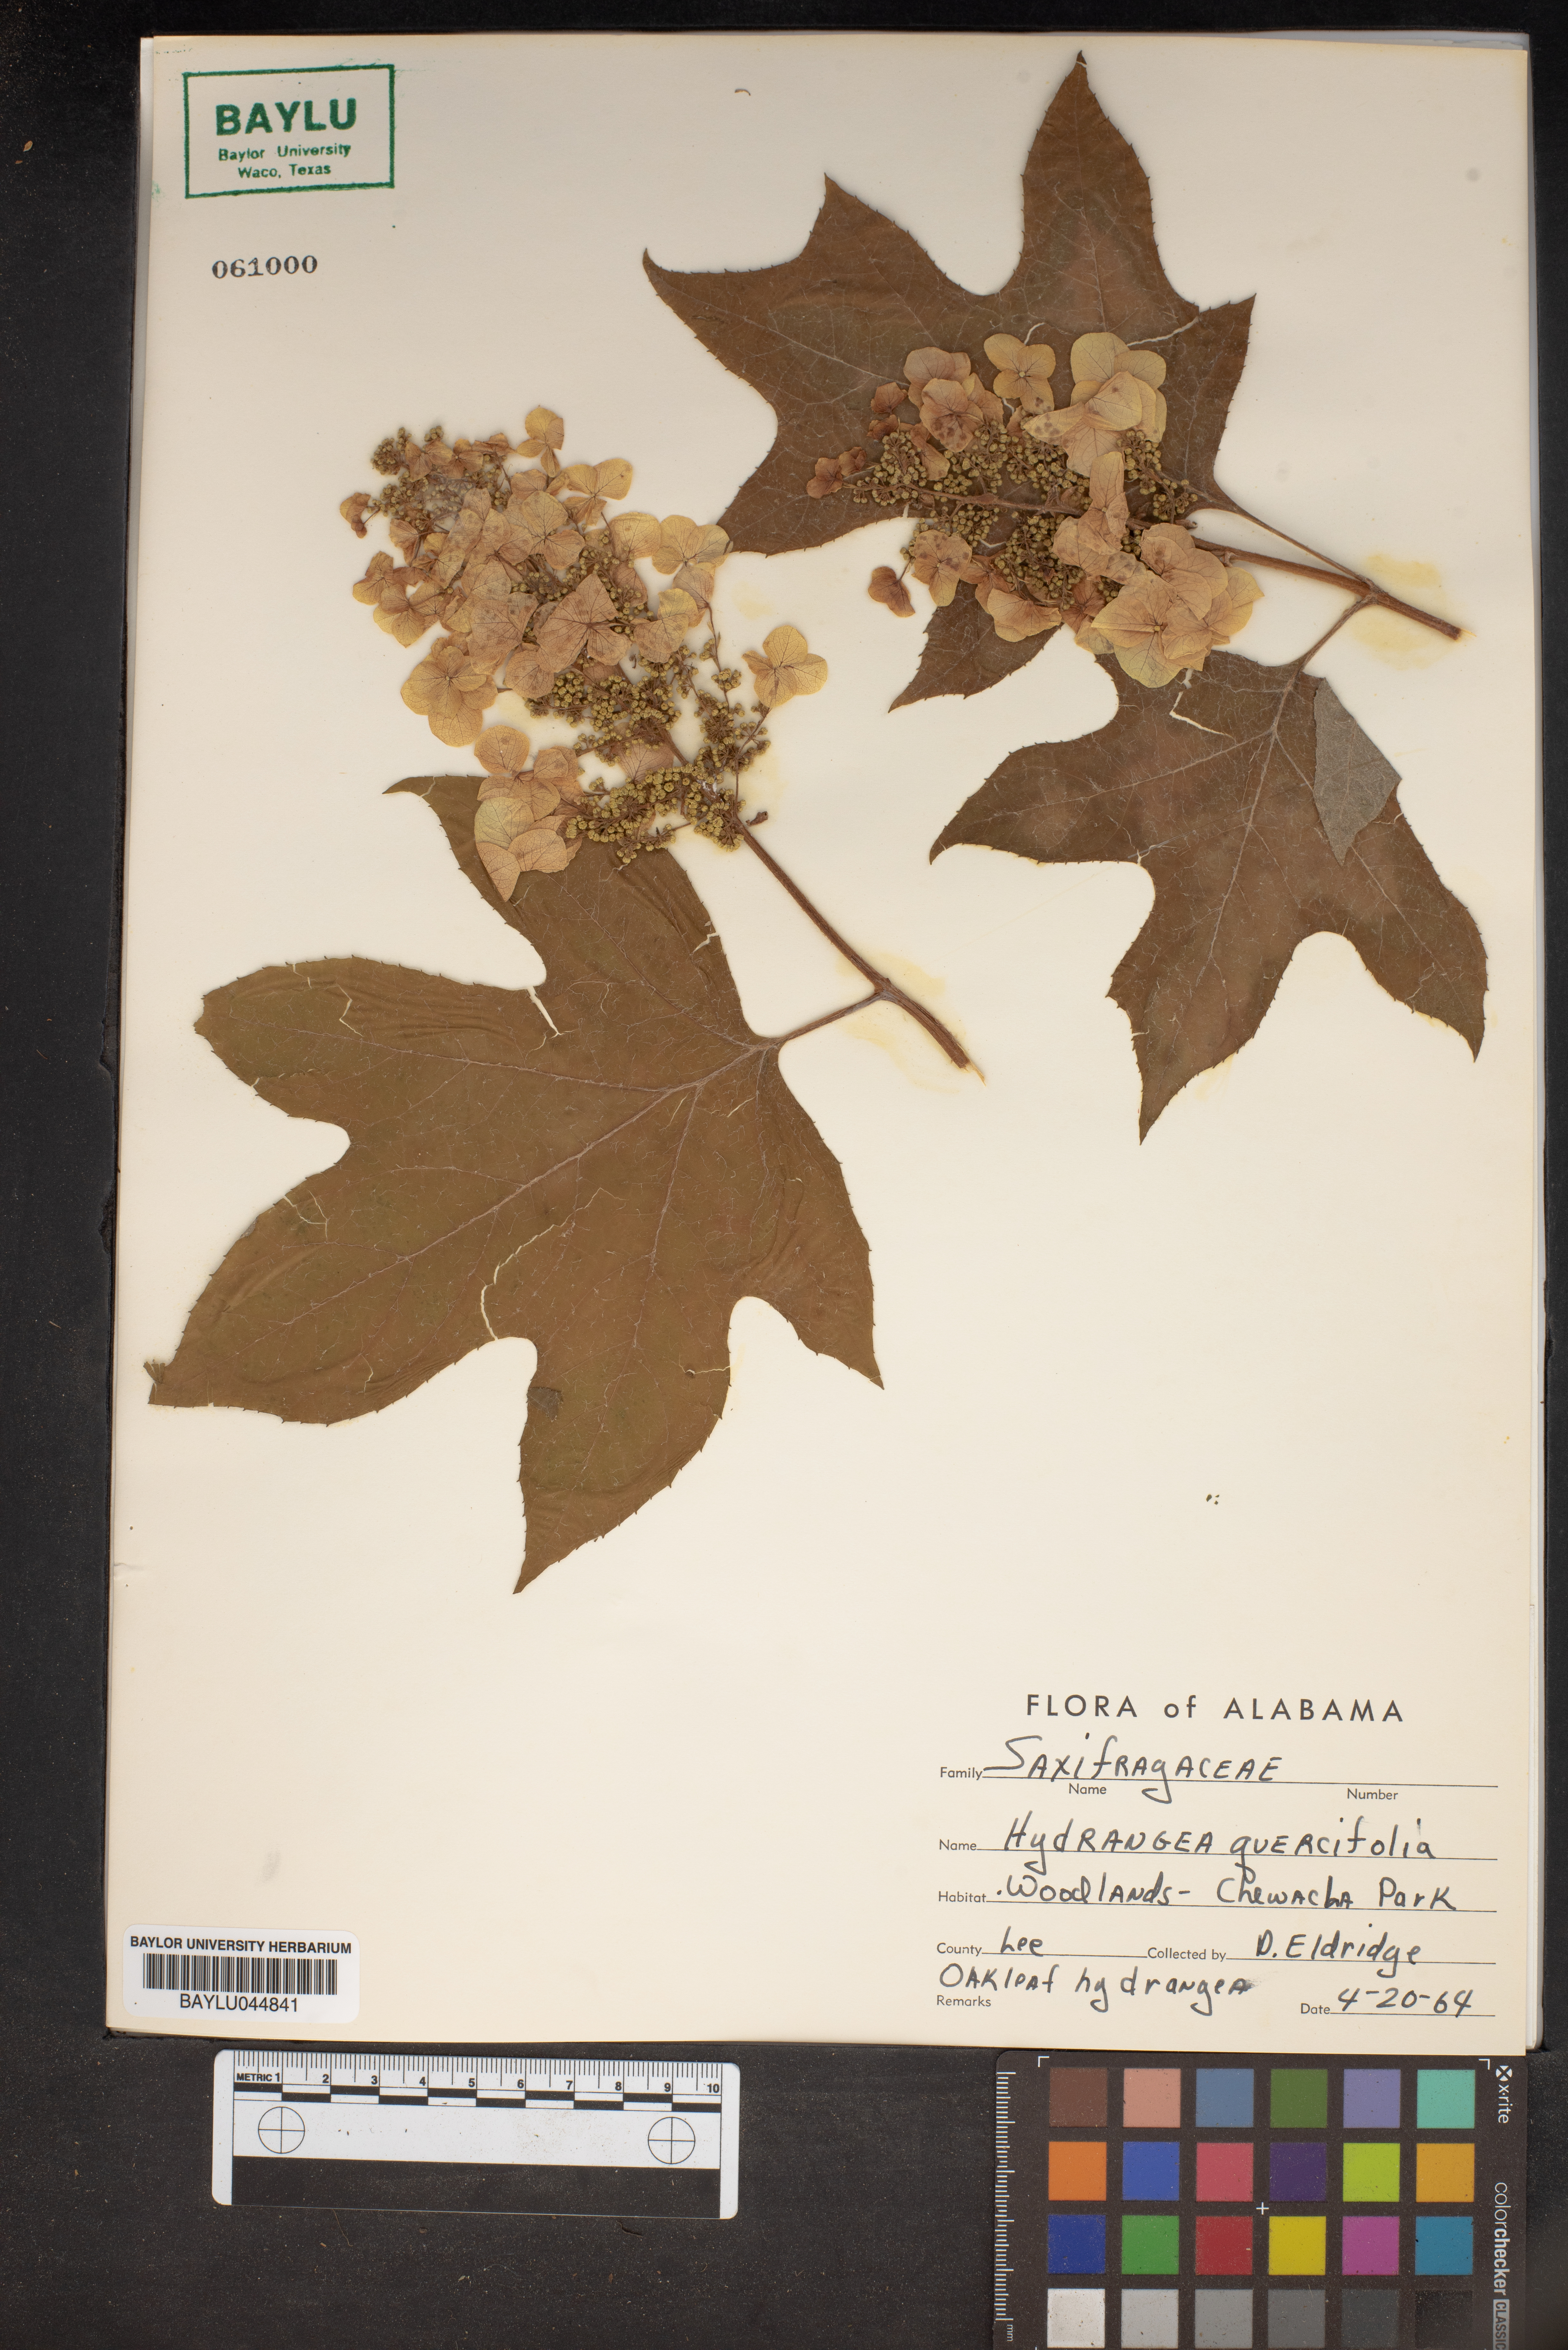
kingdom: Plantae
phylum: Tracheophyta
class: Magnoliopsida
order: Cornales
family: Hydrangeaceae
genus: Hydrangea
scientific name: Hydrangea quercifolia
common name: Oak-leaf hydrangea
